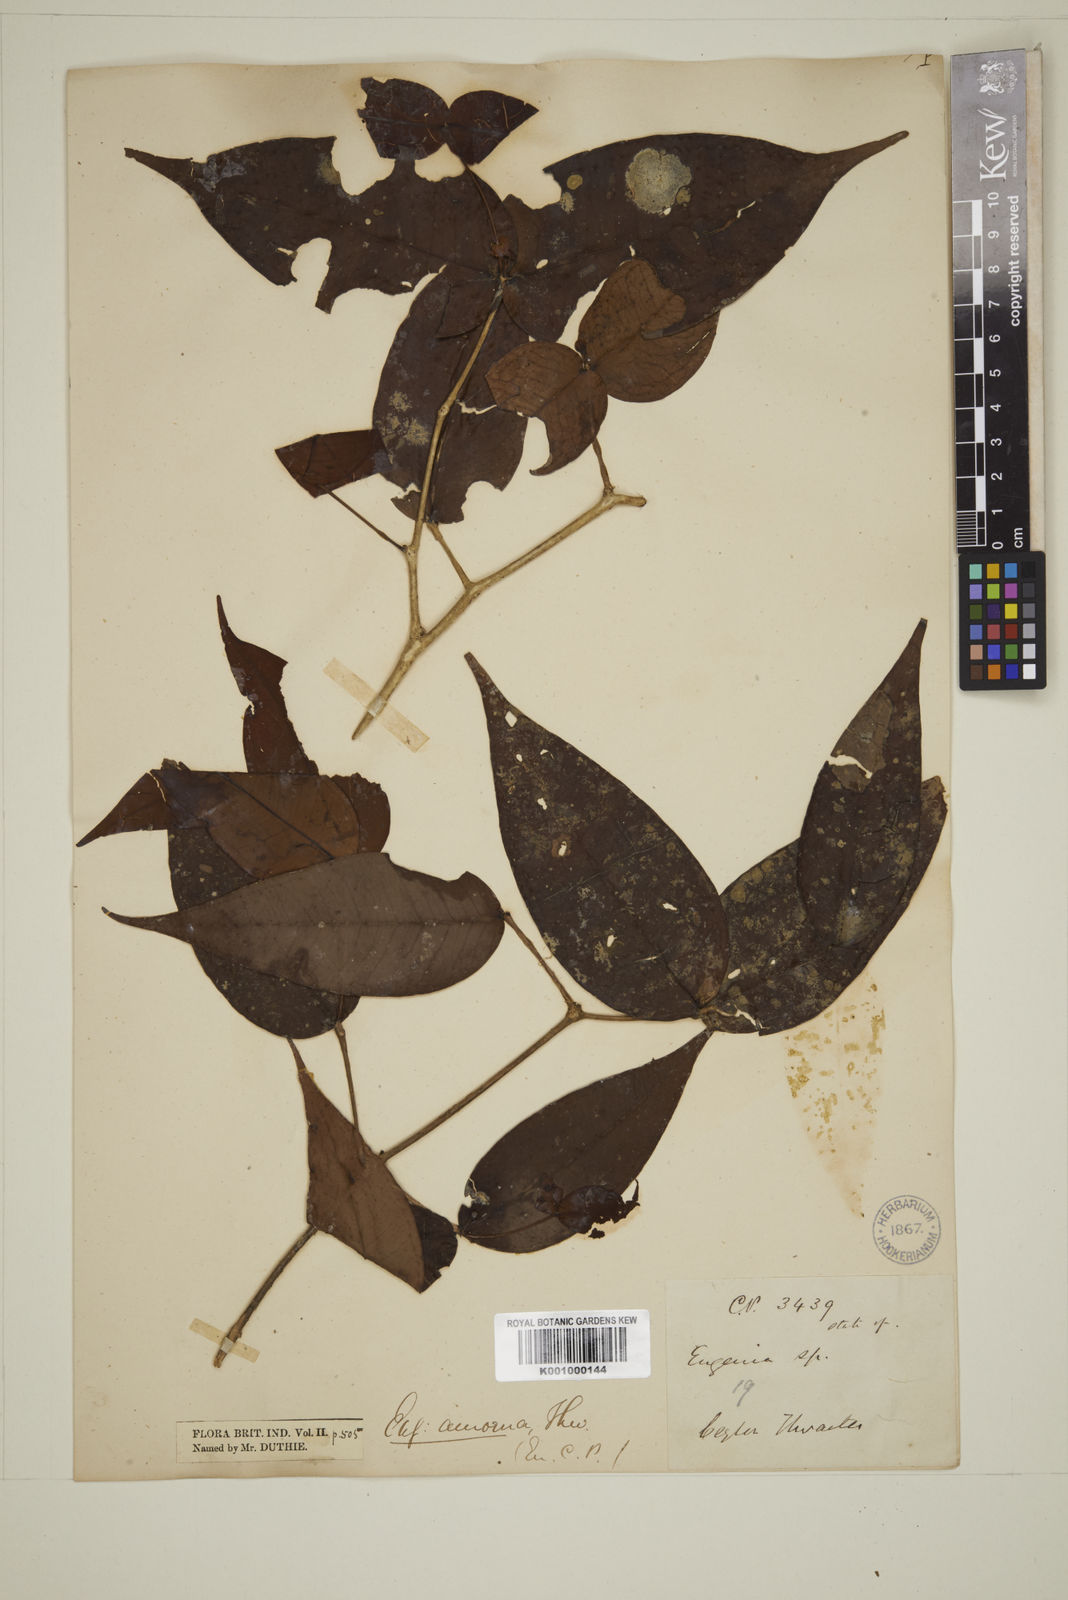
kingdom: Plantae
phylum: Tracheophyta
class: Magnoliopsida
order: Myrtales
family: Myrtaceae
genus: Eugenia
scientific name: Eugenia amoena
